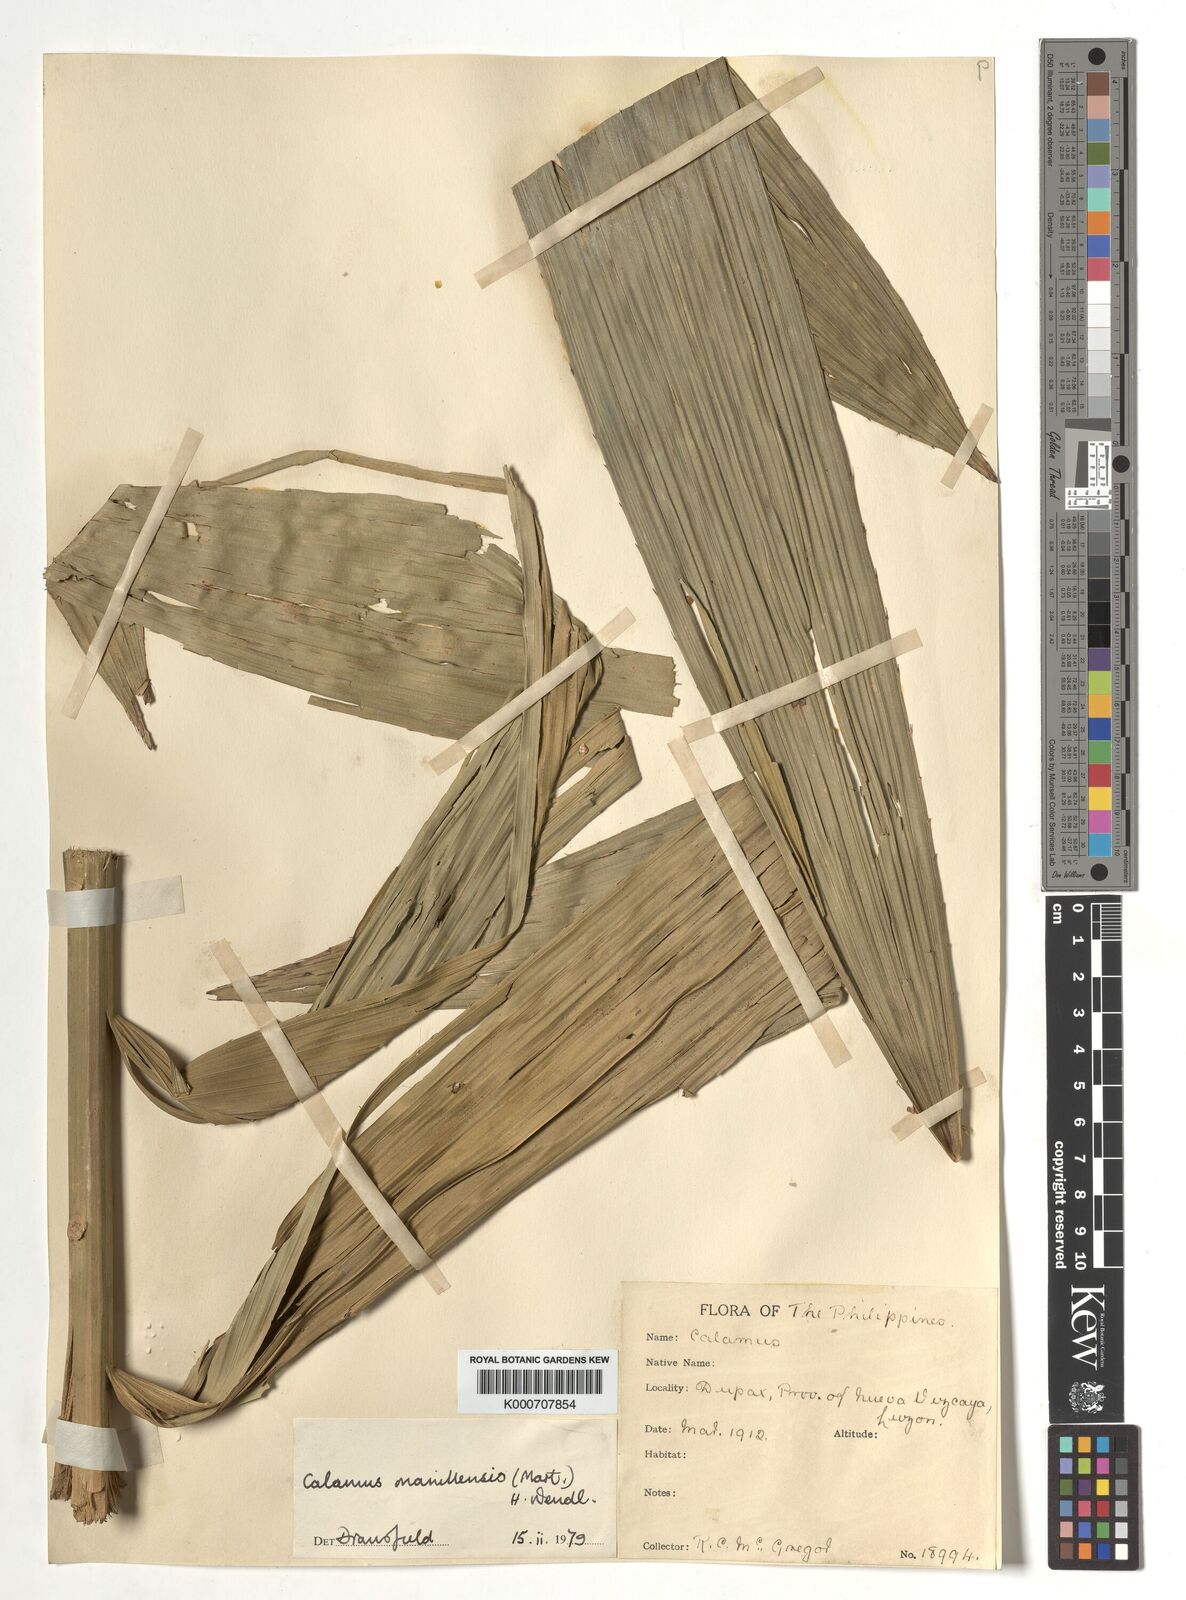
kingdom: Plantae
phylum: Tracheophyta
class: Liliopsida
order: Arecales
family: Arecaceae
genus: Calamus
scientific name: Calamus manillensis
